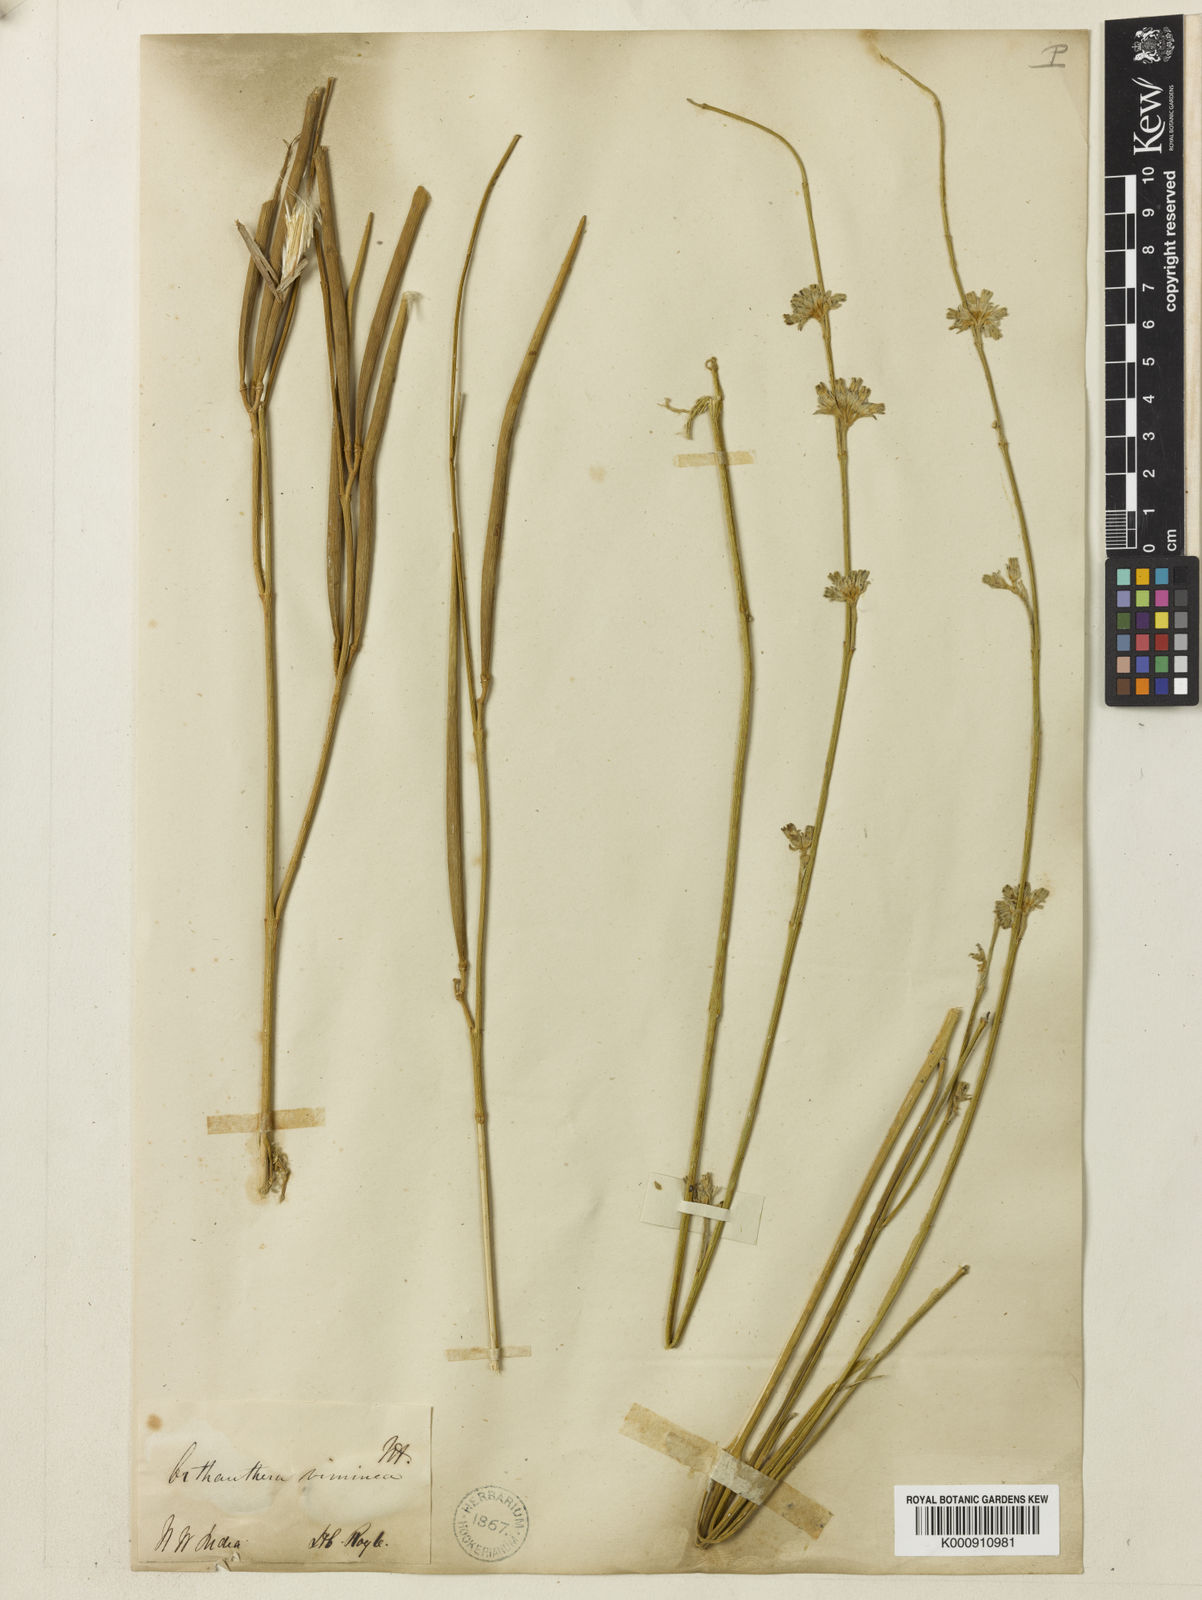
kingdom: Plantae
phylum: Tracheophyta
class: Magnoliopsida
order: Gentianales
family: Apocynaceae
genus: Orthanthera
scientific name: Orthanthera viminea
